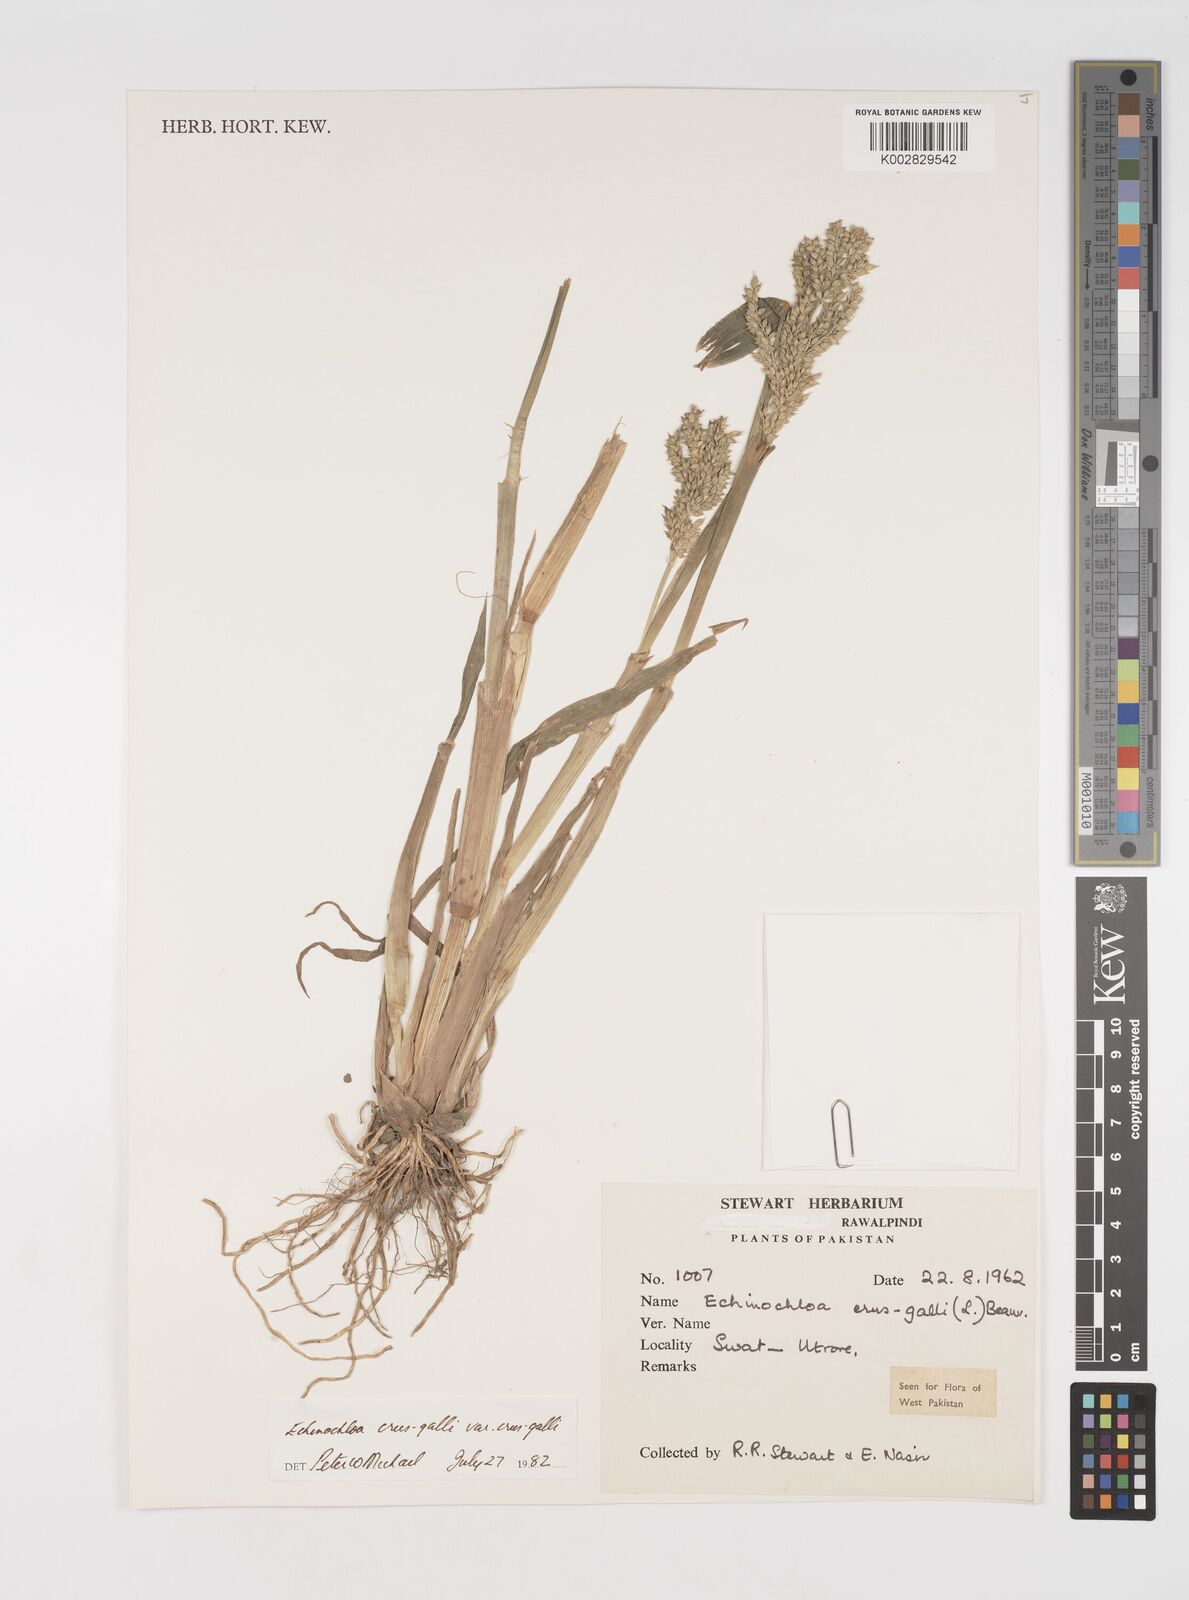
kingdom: Plantae
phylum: Tracheophyta
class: Liliopsida
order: Poales
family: Poaceae
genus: Echinochloa
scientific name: Echinochloa crus-galli
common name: Cockspur
